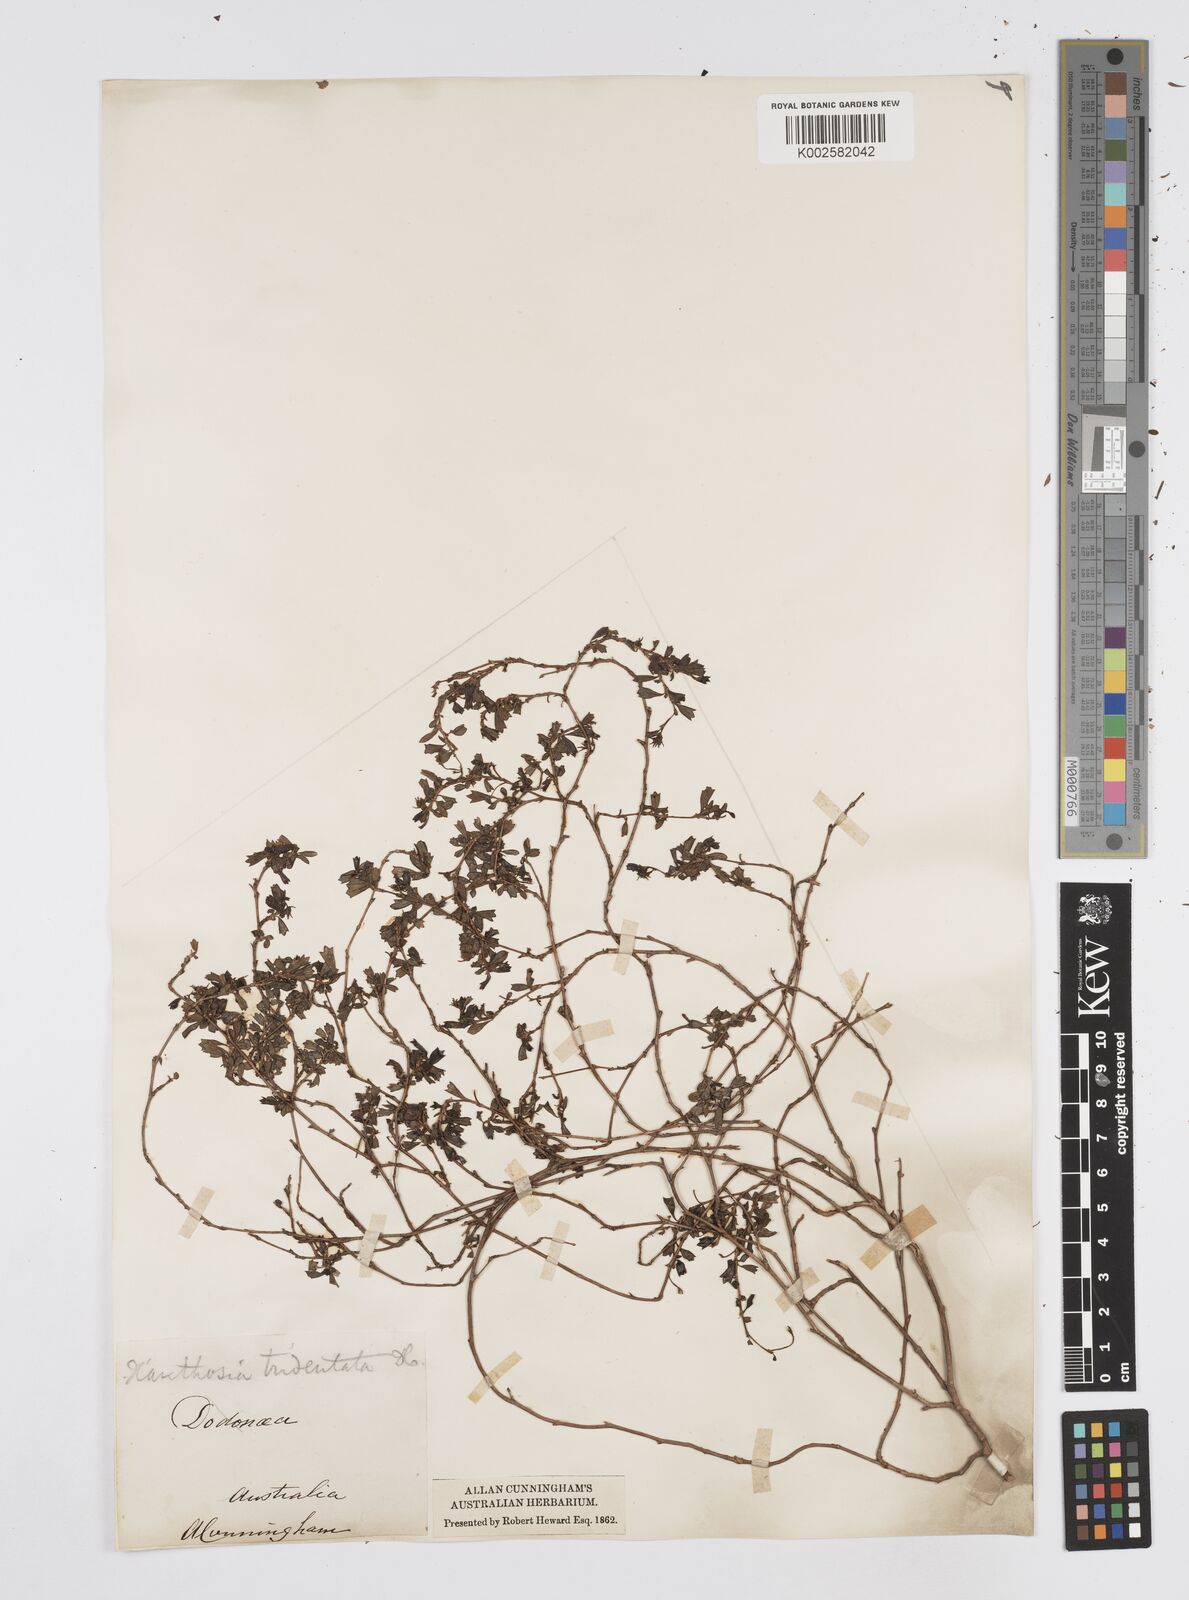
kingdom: Plantae
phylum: Tracheophyta
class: Magnoliopsida
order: Apiales
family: Apiaceae
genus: Xanthosia
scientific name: Xanthosia tridentata
